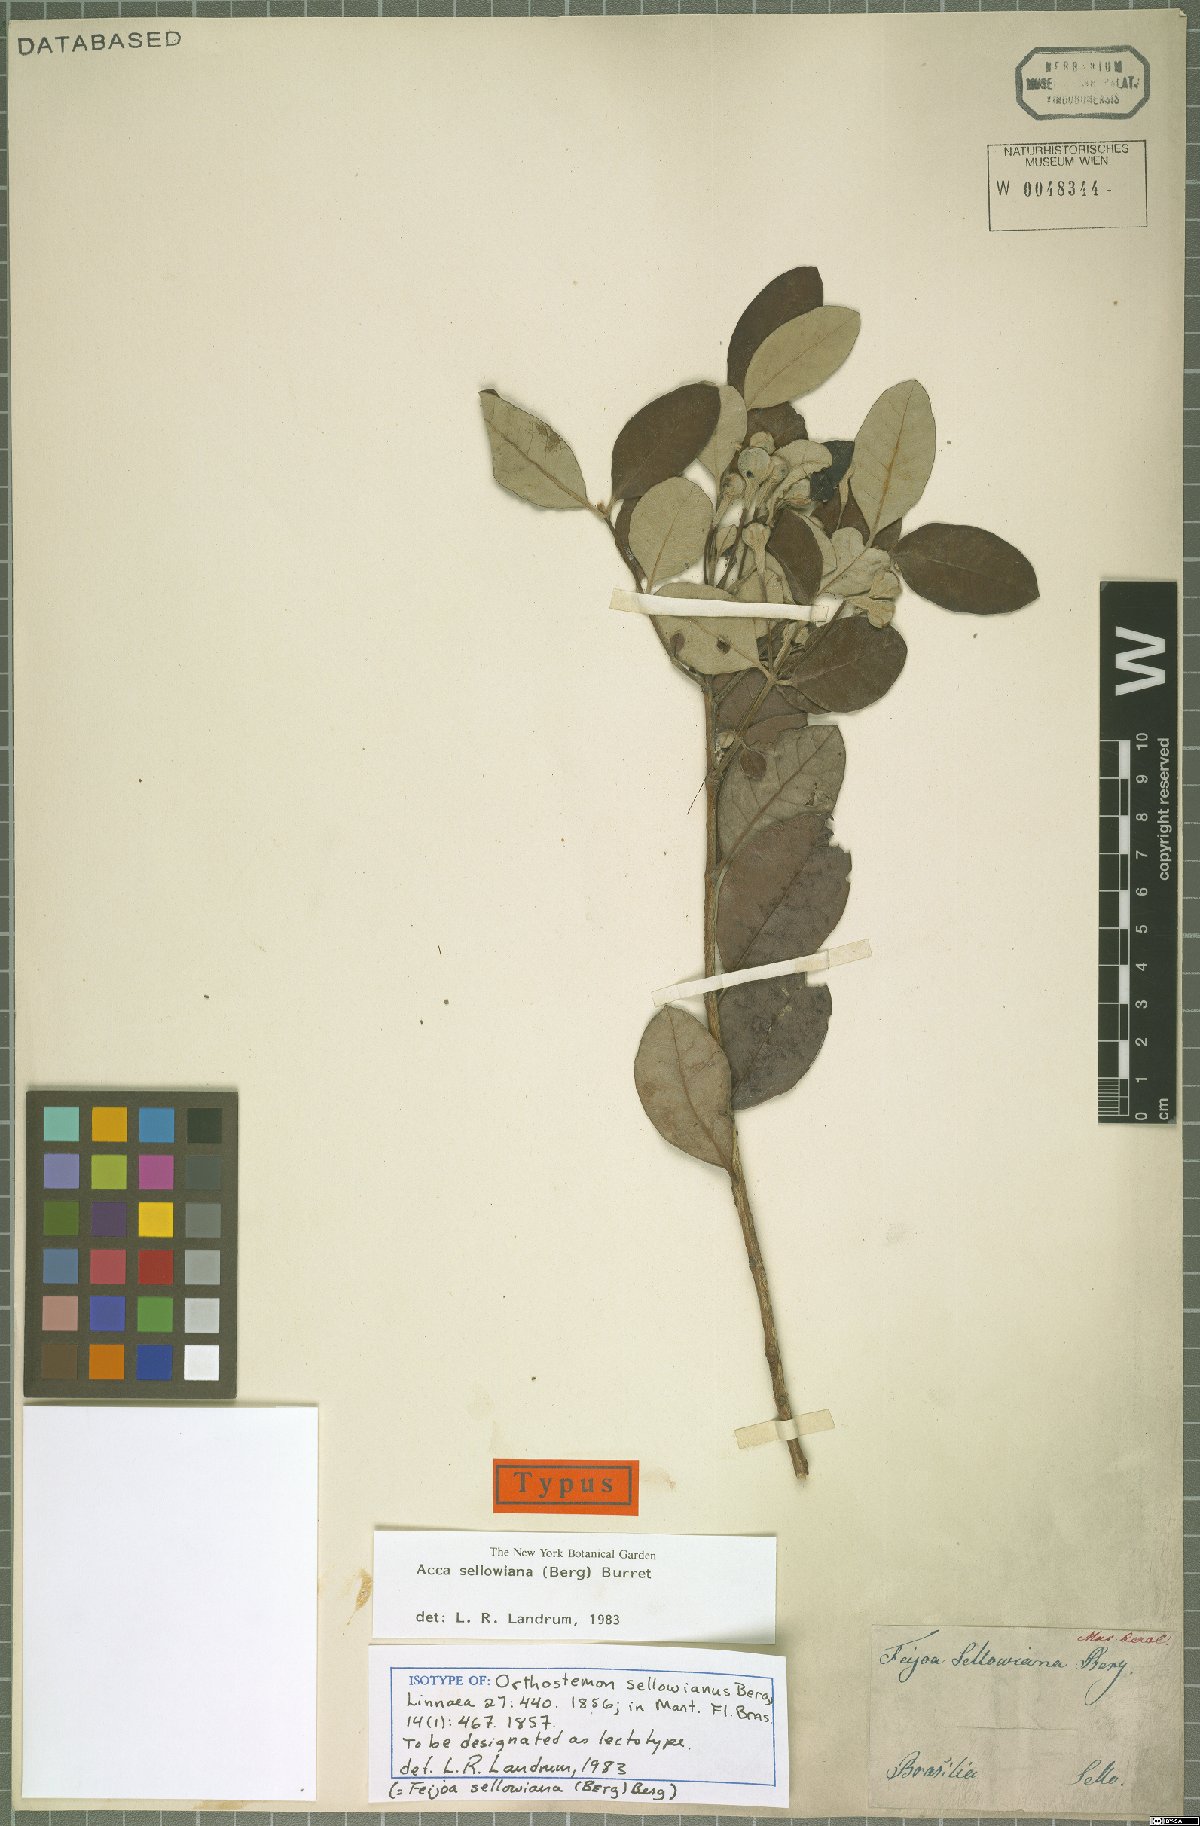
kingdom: Plantae
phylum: Tracheophyta
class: Magnoliopsida
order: Myrtales
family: Myrtaceae
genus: Feijoa
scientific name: Feijoa sellowiana
